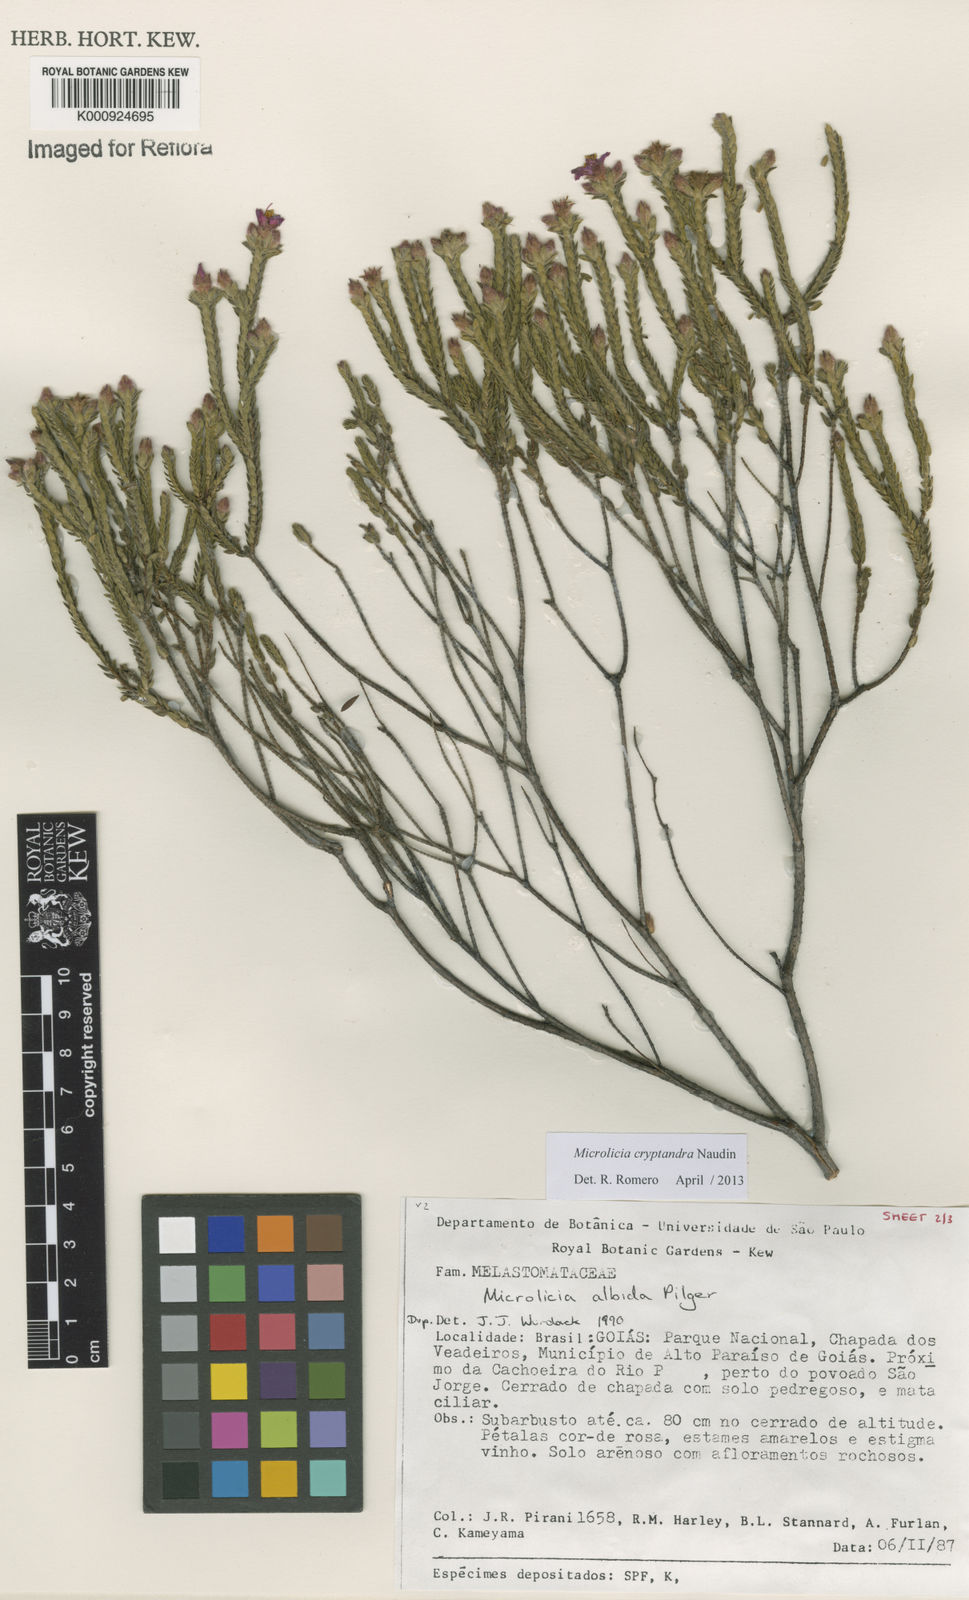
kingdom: Plantae
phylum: Tracheophyta
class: Magnoliopsida
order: Myrtales
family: Melastomataceae
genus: Microlicia
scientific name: Microlicia cryptandra
